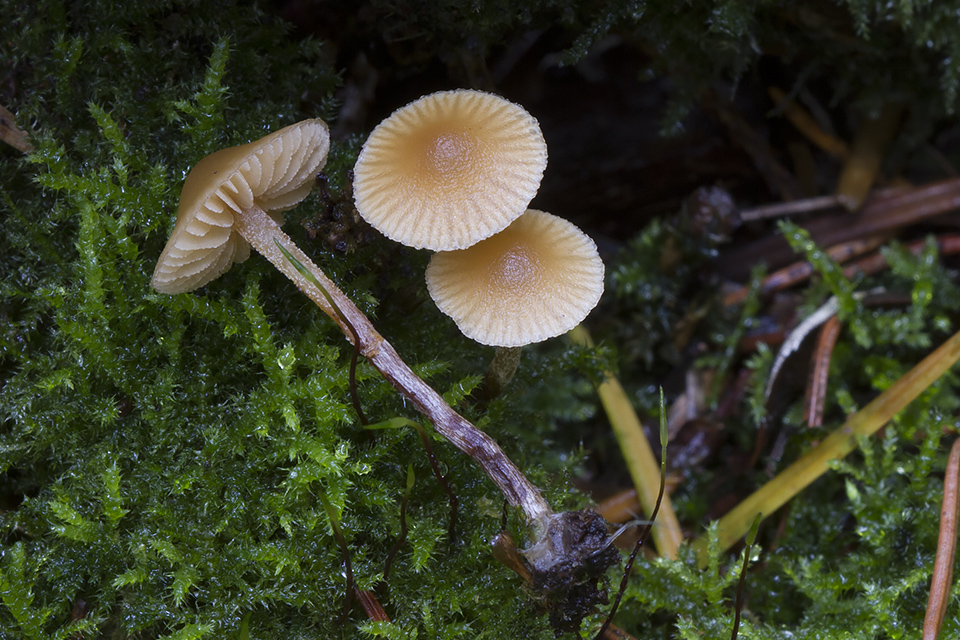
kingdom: Fungi
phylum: Basidiomycota
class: Agaricomycetes
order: Agaricales
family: Hymenogastraceae
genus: Galerina
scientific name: Galerina badipes
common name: brunstokket hjelmhat
